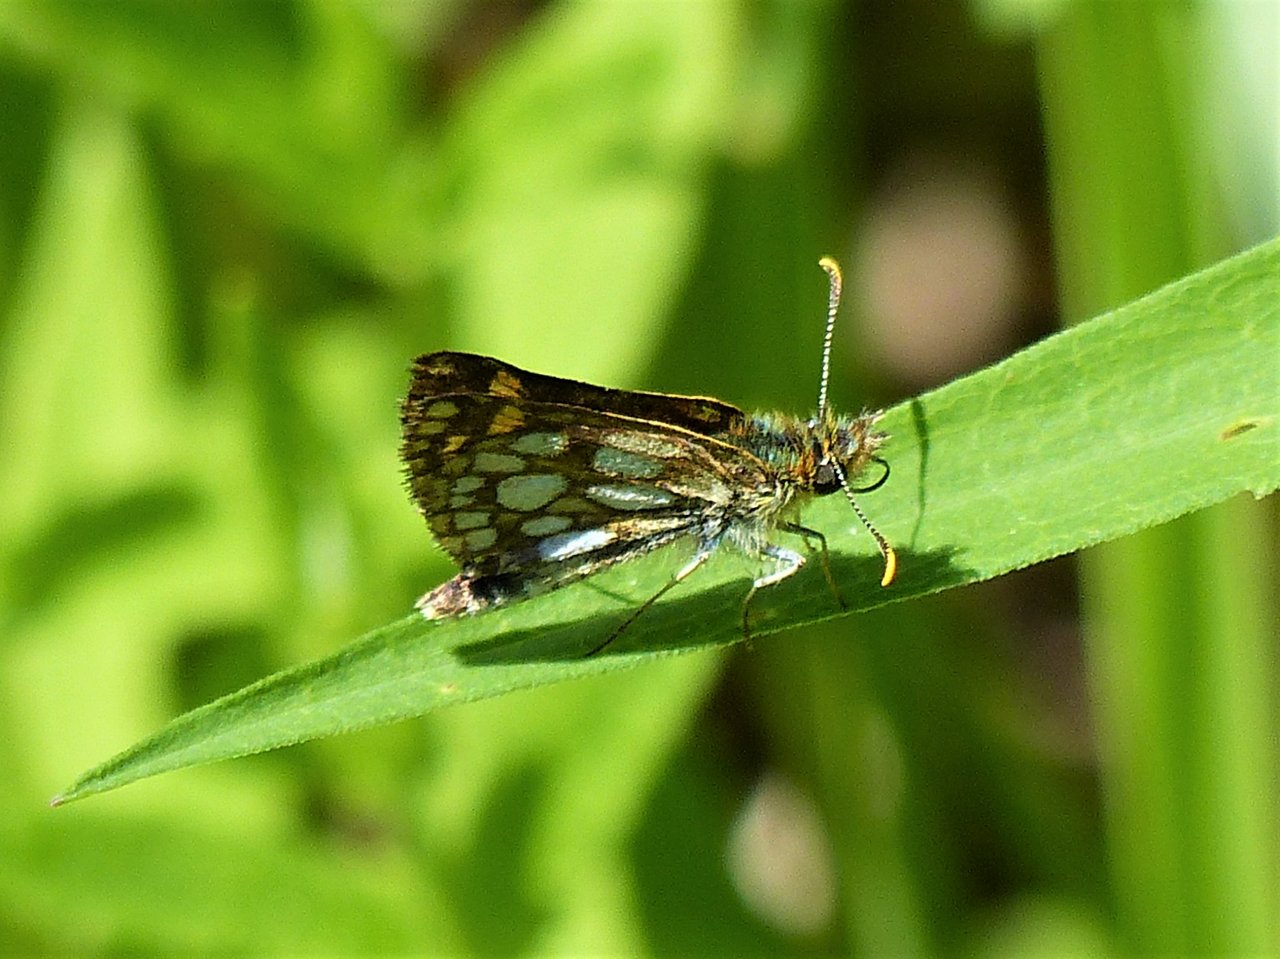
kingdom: Animalia
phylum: Arthropoda
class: Insecta
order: Lepidoptera
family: Hesperiidae
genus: Carterocephalus
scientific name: Carterocephalus palaemon
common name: Chequered Skipper
